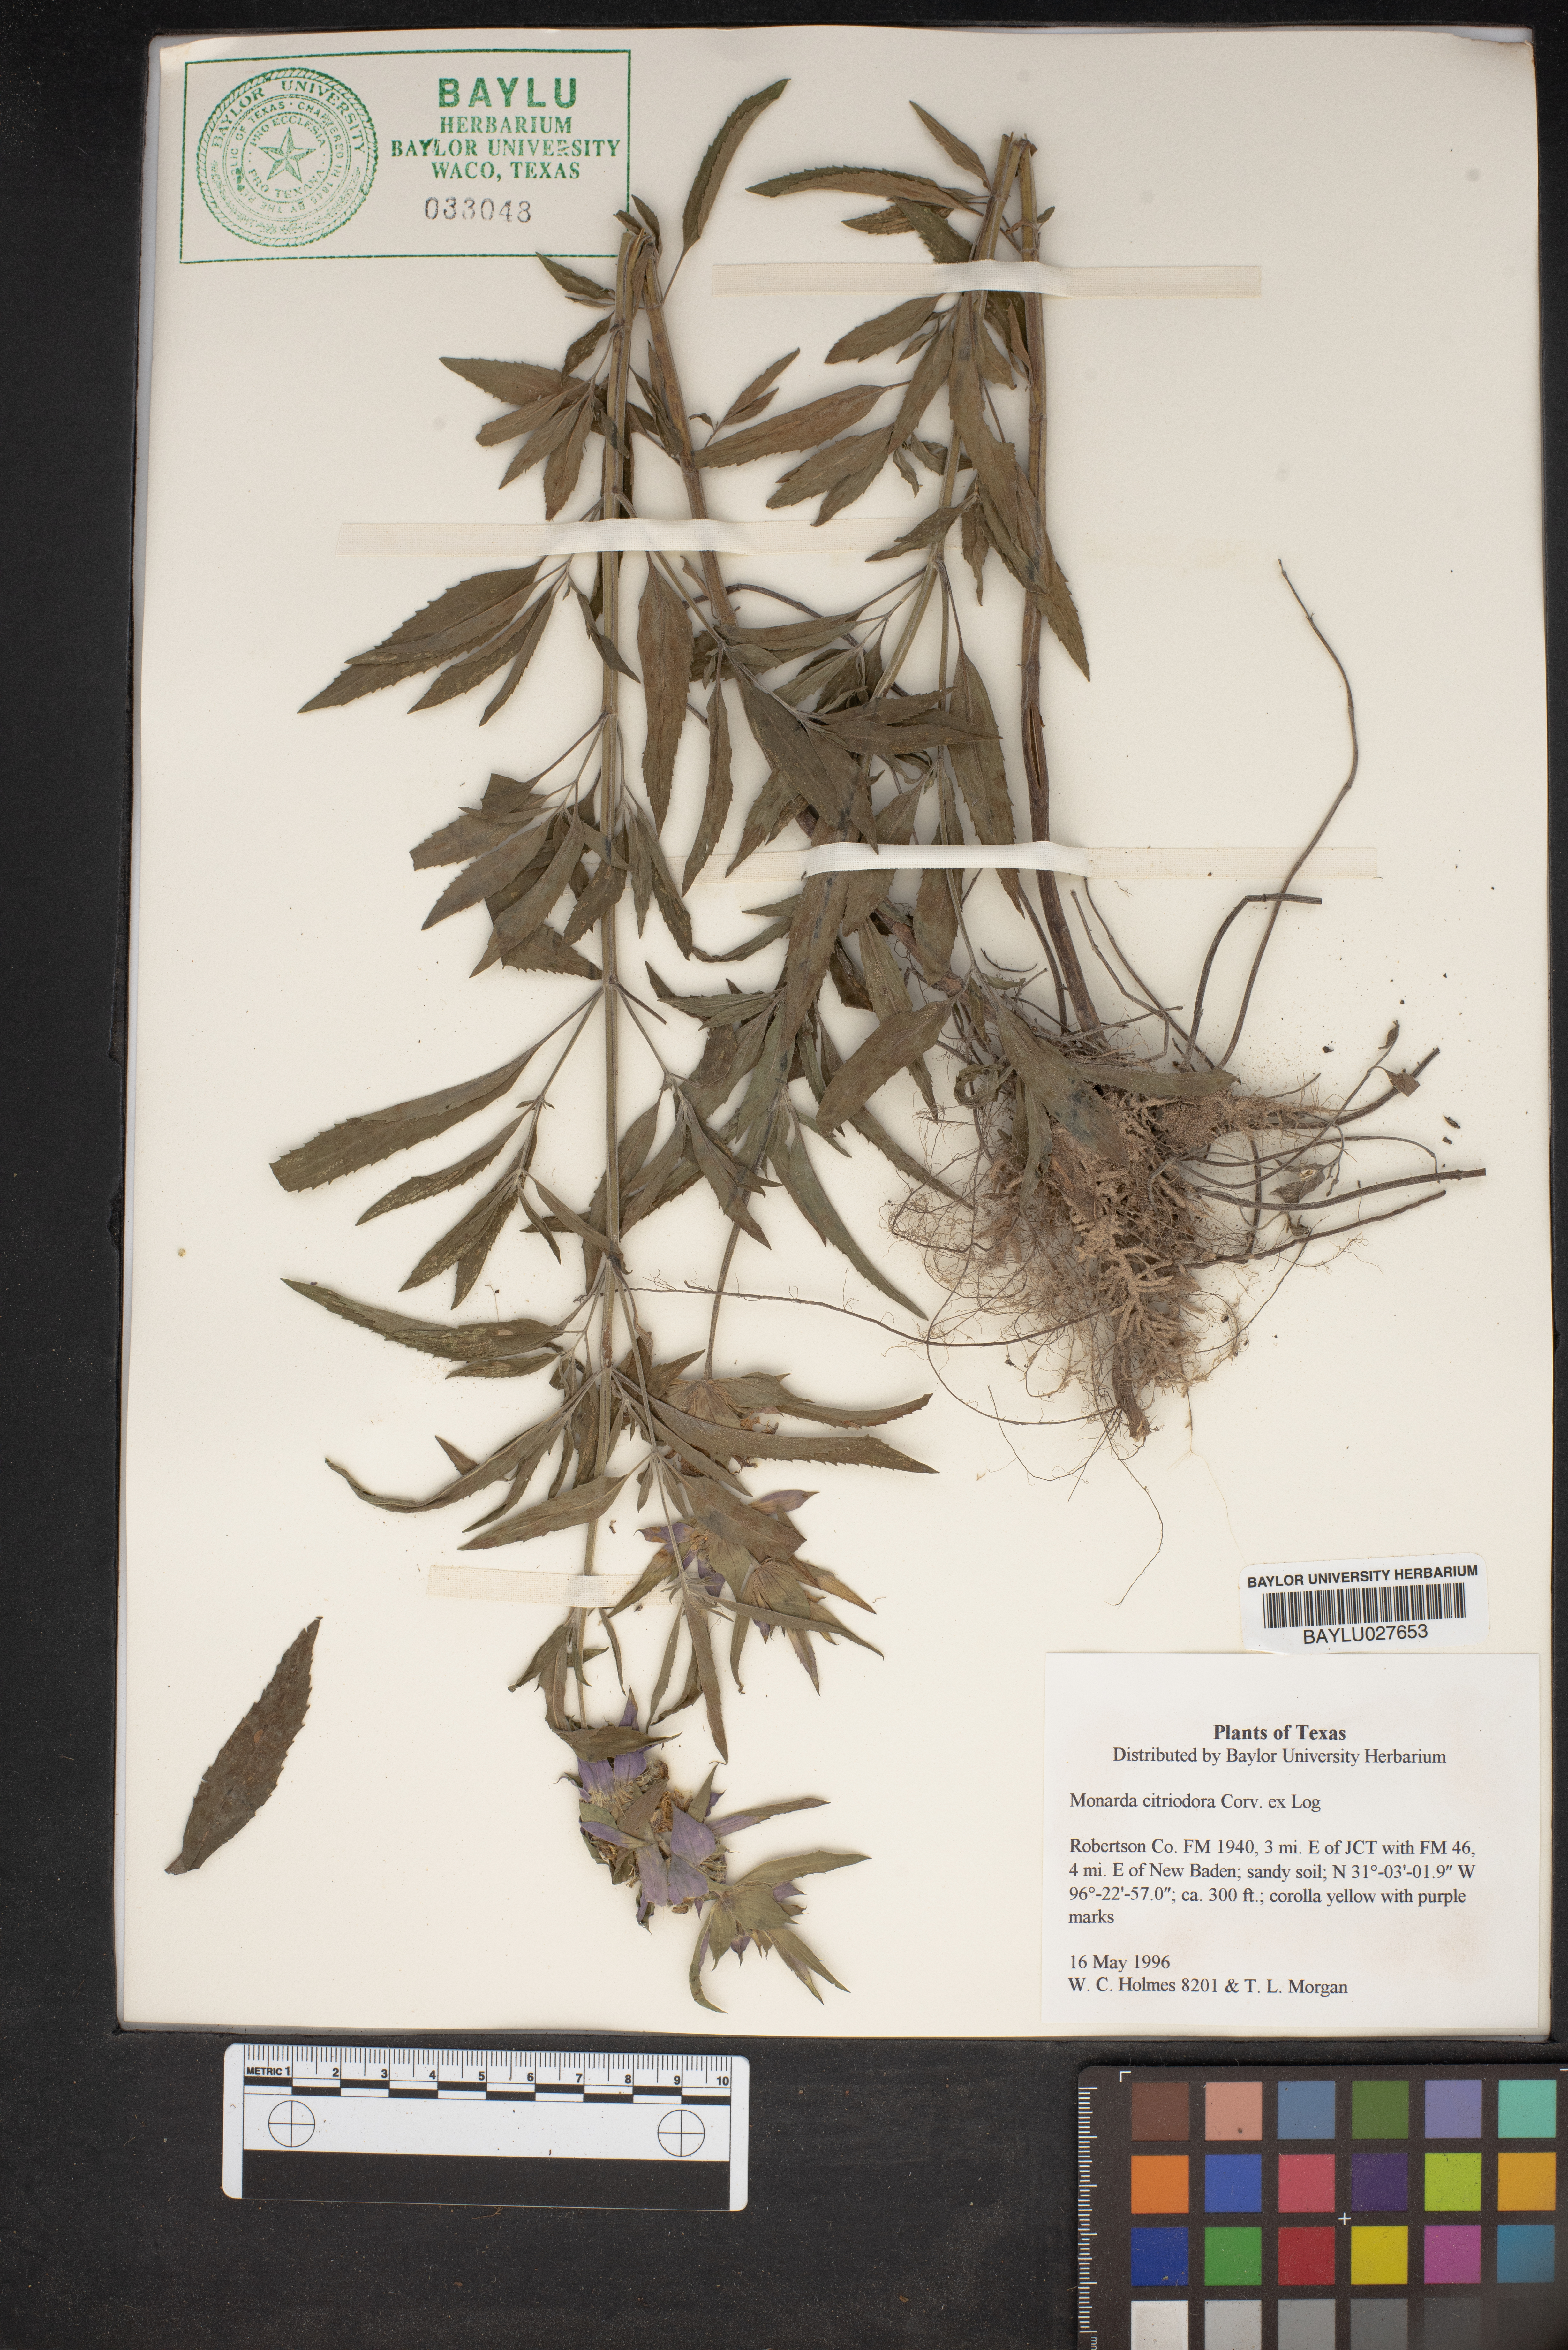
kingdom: Plantae
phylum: Tracheophyta
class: Magnoliopsida
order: Lamiales
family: Lamiaceae
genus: Monarda
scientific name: Monarda citriodora
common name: Lemon beebalm
